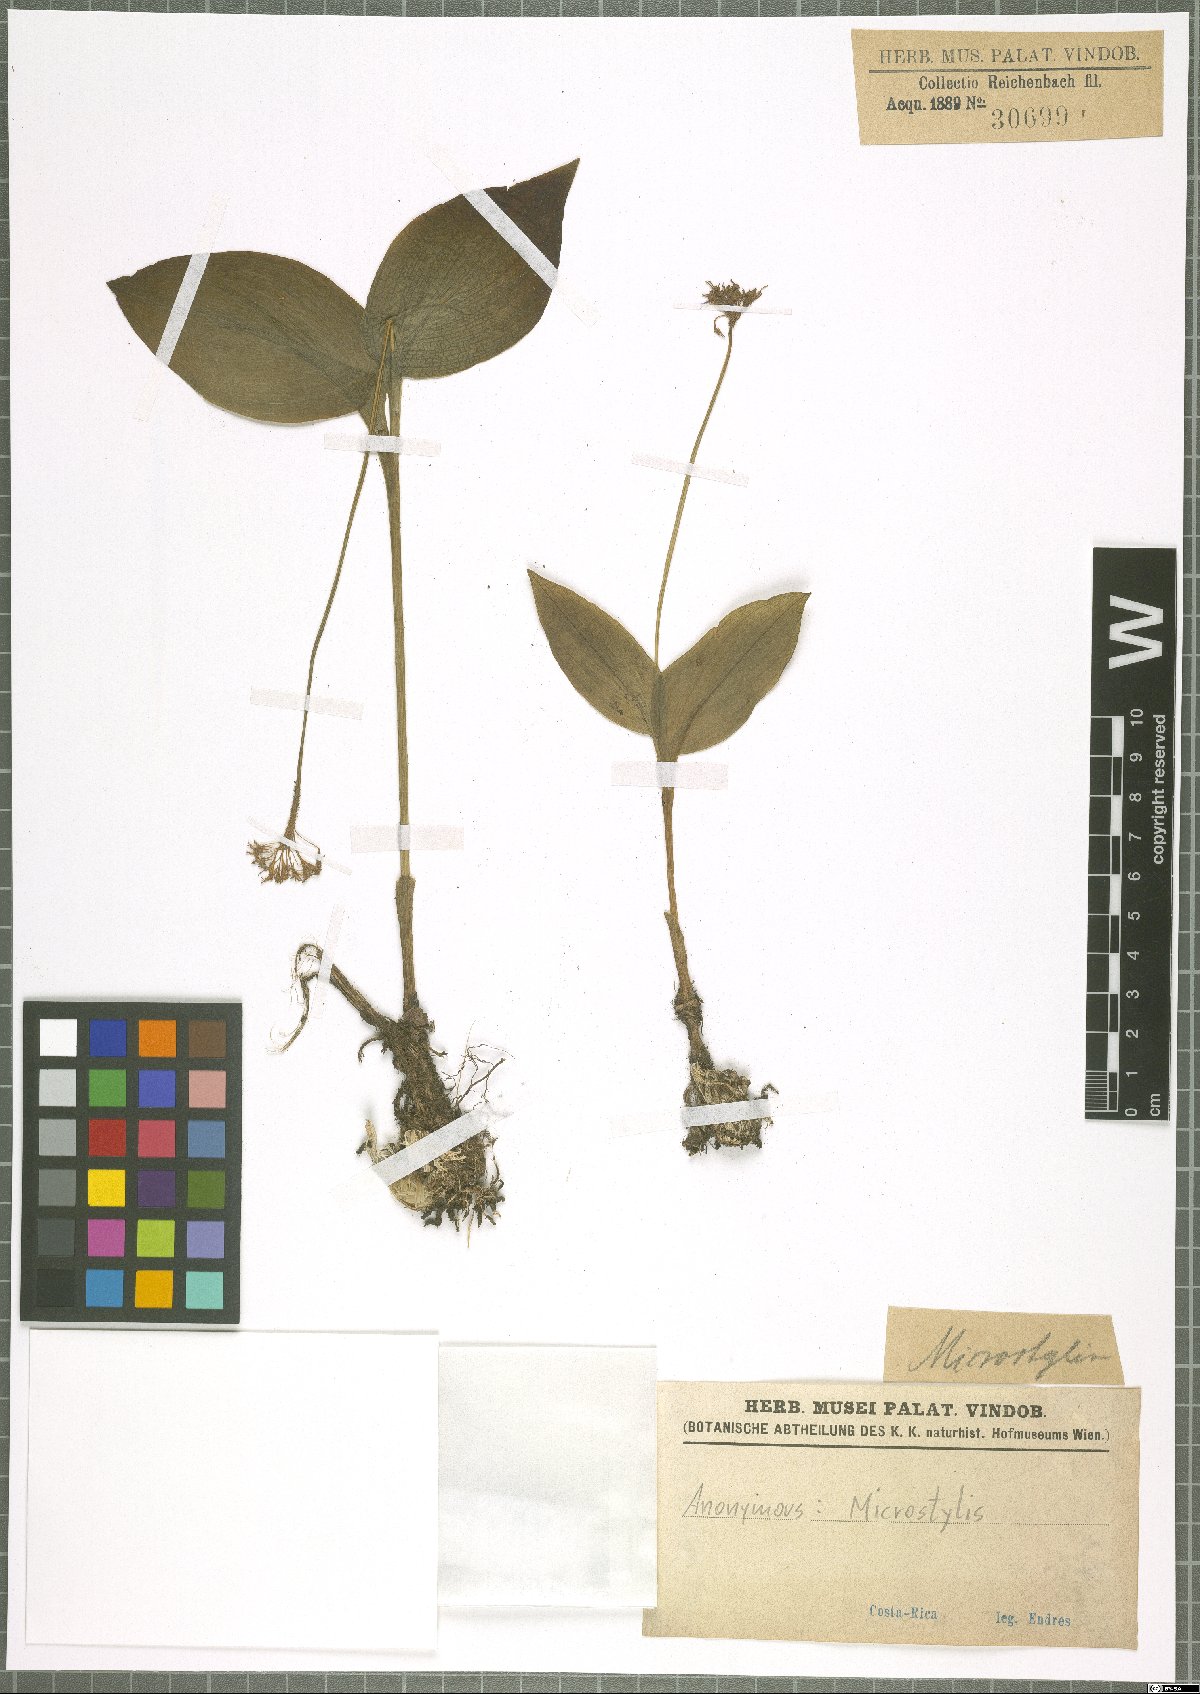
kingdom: Plantae
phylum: Tracheophyta
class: Liliopsida
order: Asparagales
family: Orchidaceae
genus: Microstylis
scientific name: Microstylis
